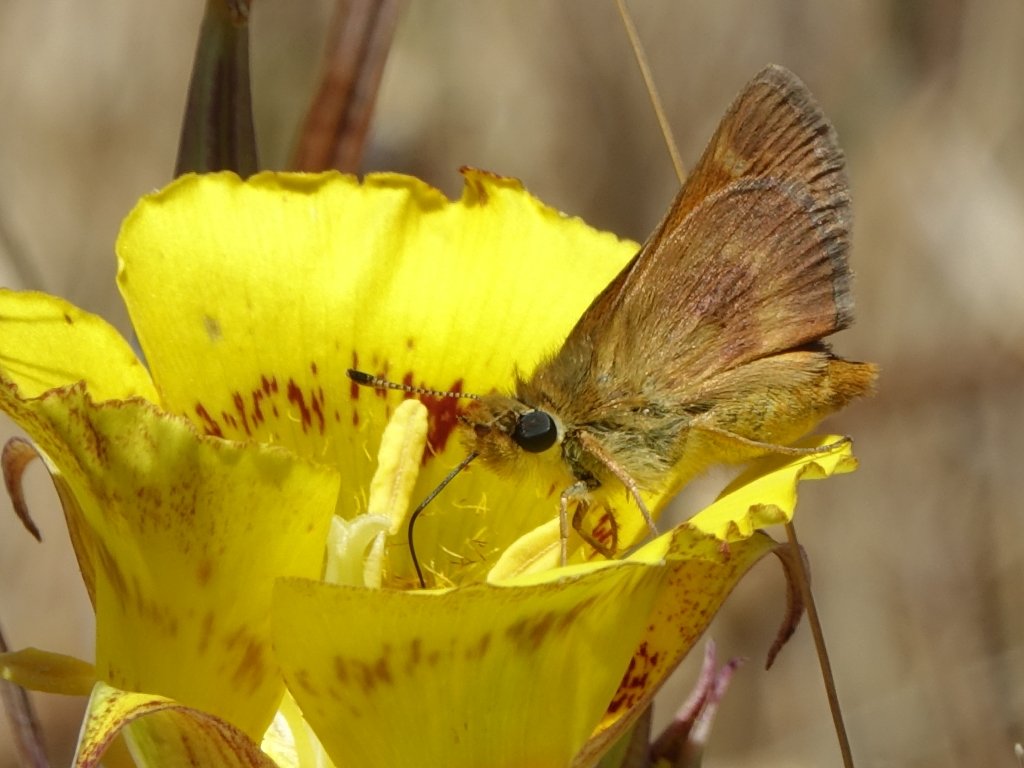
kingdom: Animalia
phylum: Arthropoda
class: Insecta
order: Lepidoptera
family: Hesperiidae
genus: Ochlodes
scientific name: Ochlodes agricola
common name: Rural Skipper
